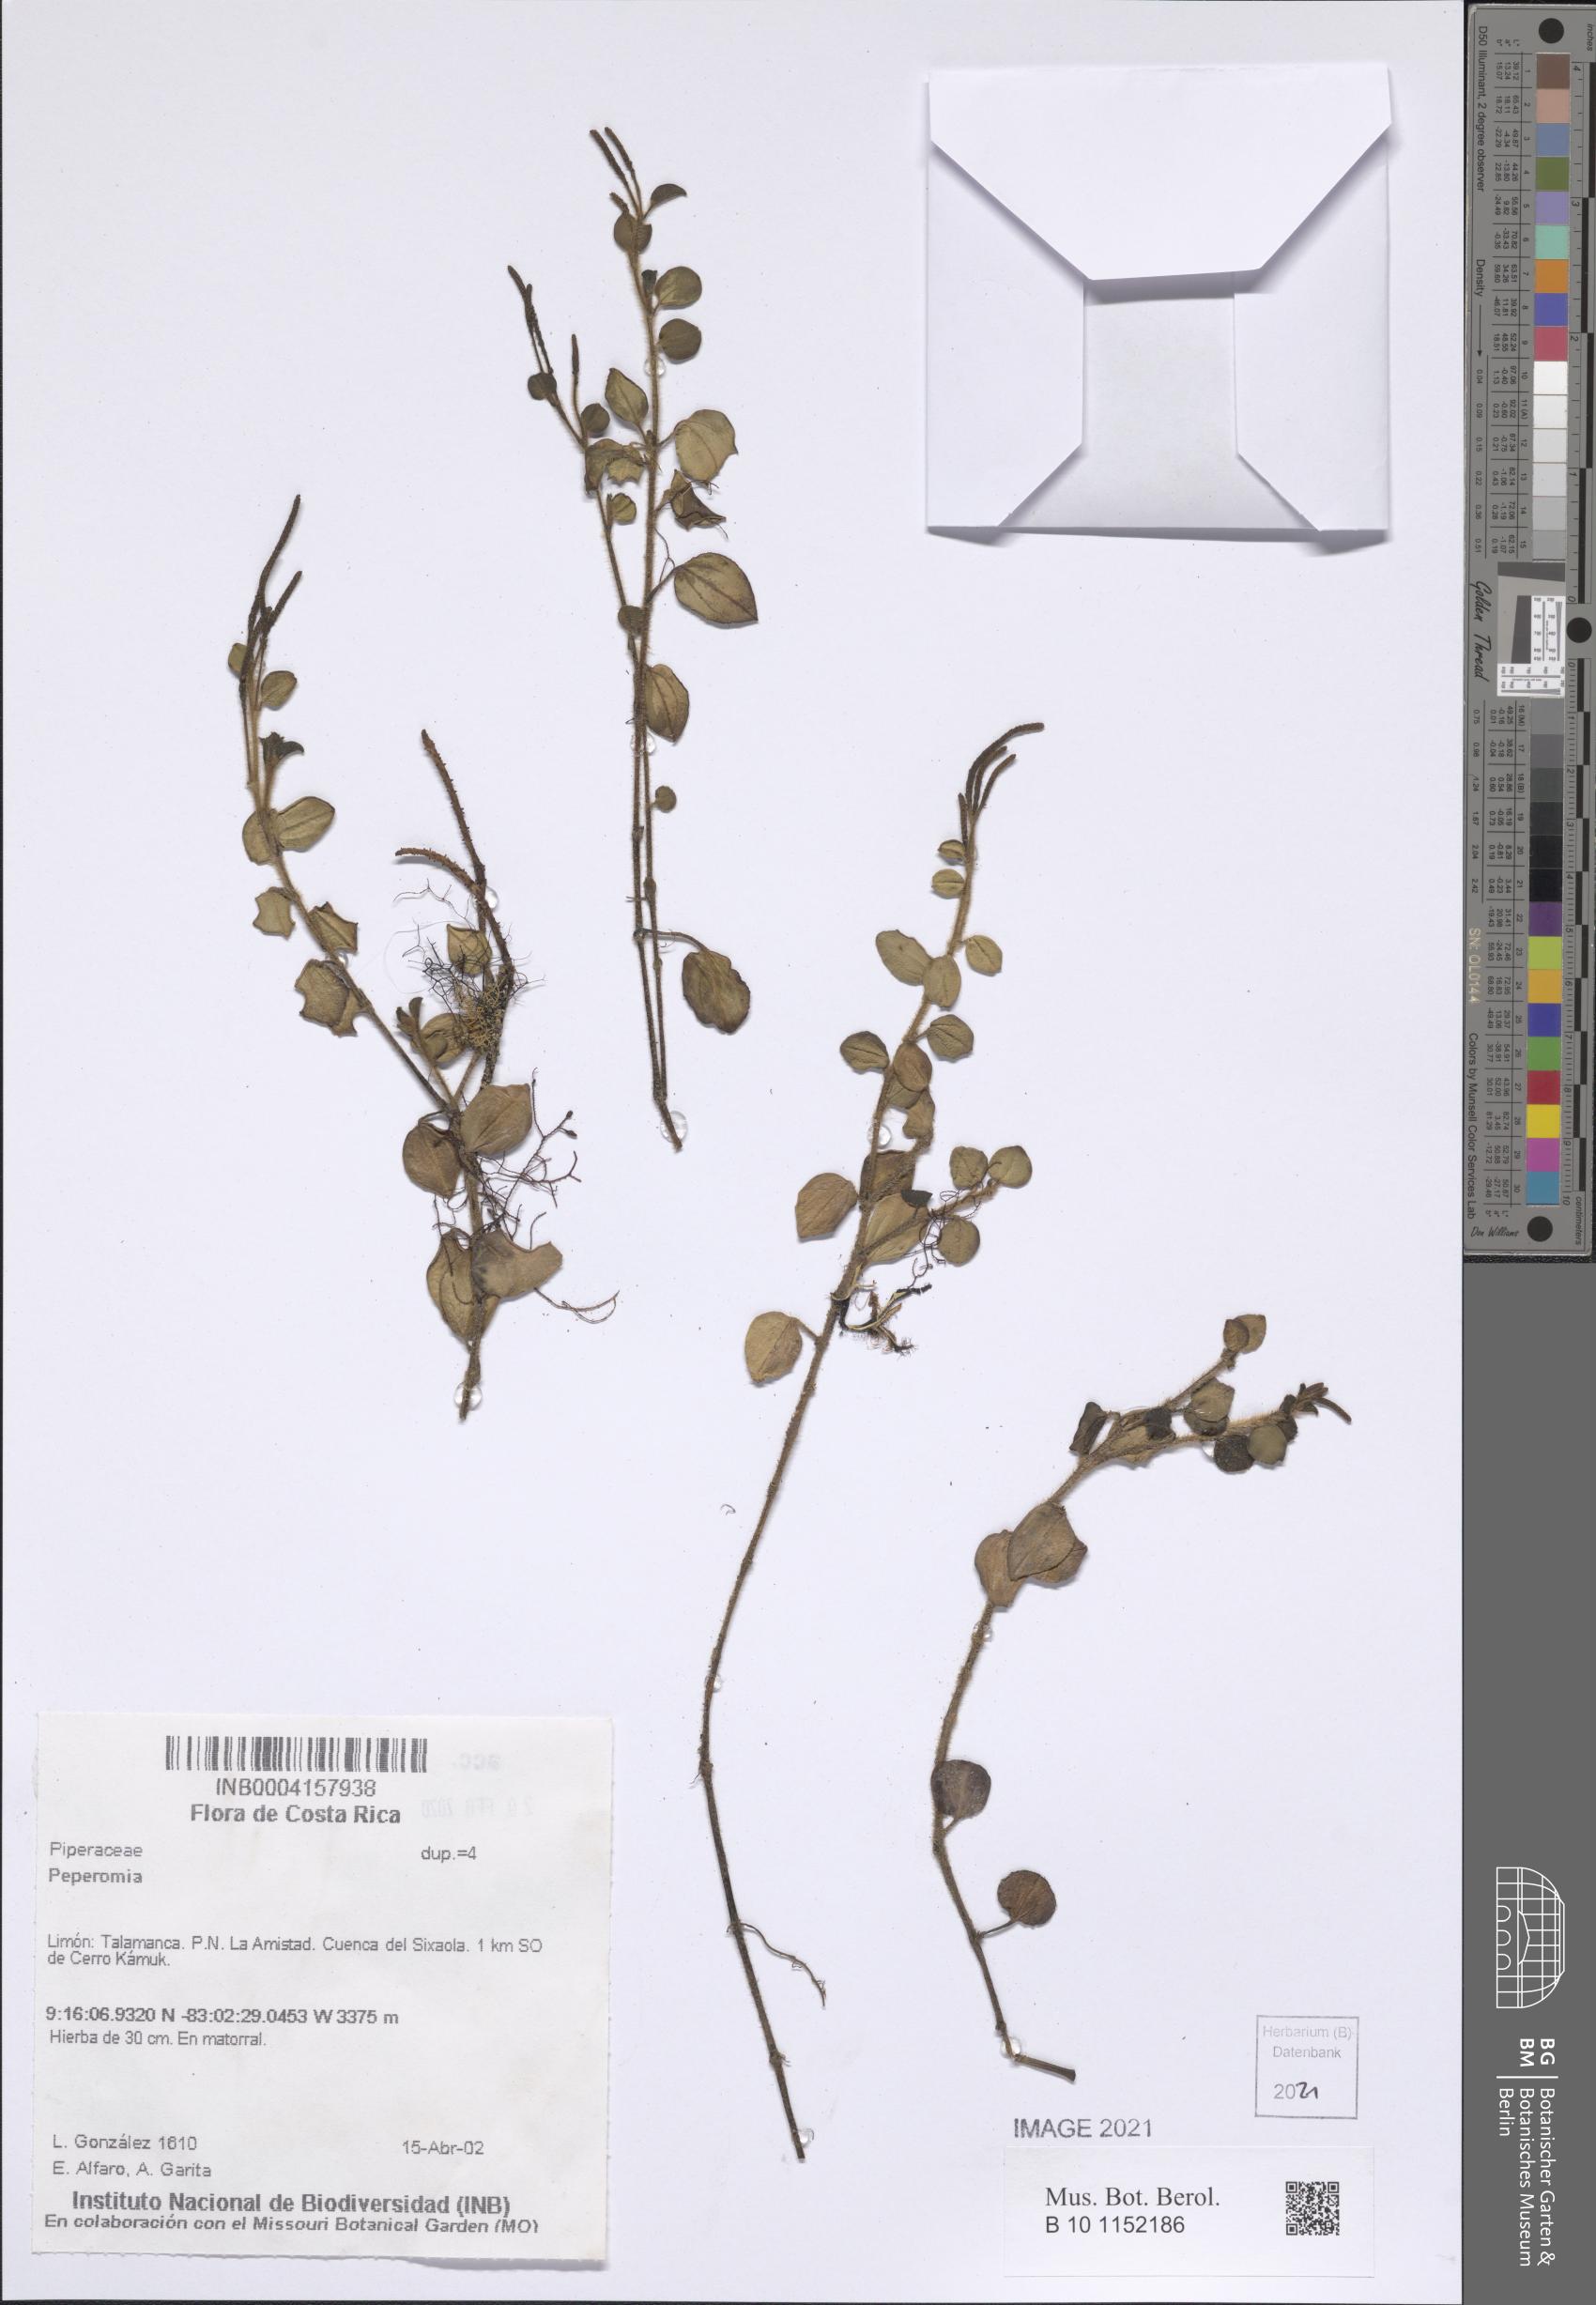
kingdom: Plantae
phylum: Tracheophyta
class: Magnoliopsida
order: Piperales
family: Piperaceae
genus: Peperomia
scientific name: Peperomia
